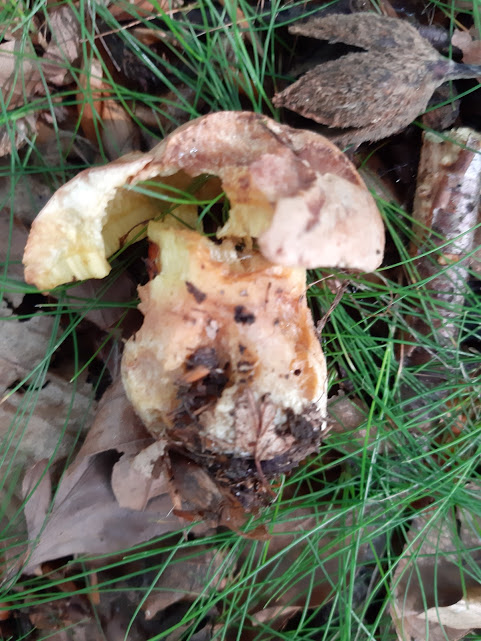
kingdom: Fungi
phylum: Basidiomycota
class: Agaricomycetes
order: Boletales
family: Boletaceae
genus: Butyriboletus
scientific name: Butyriboletus appendiculatus
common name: tenstokket rørhat
